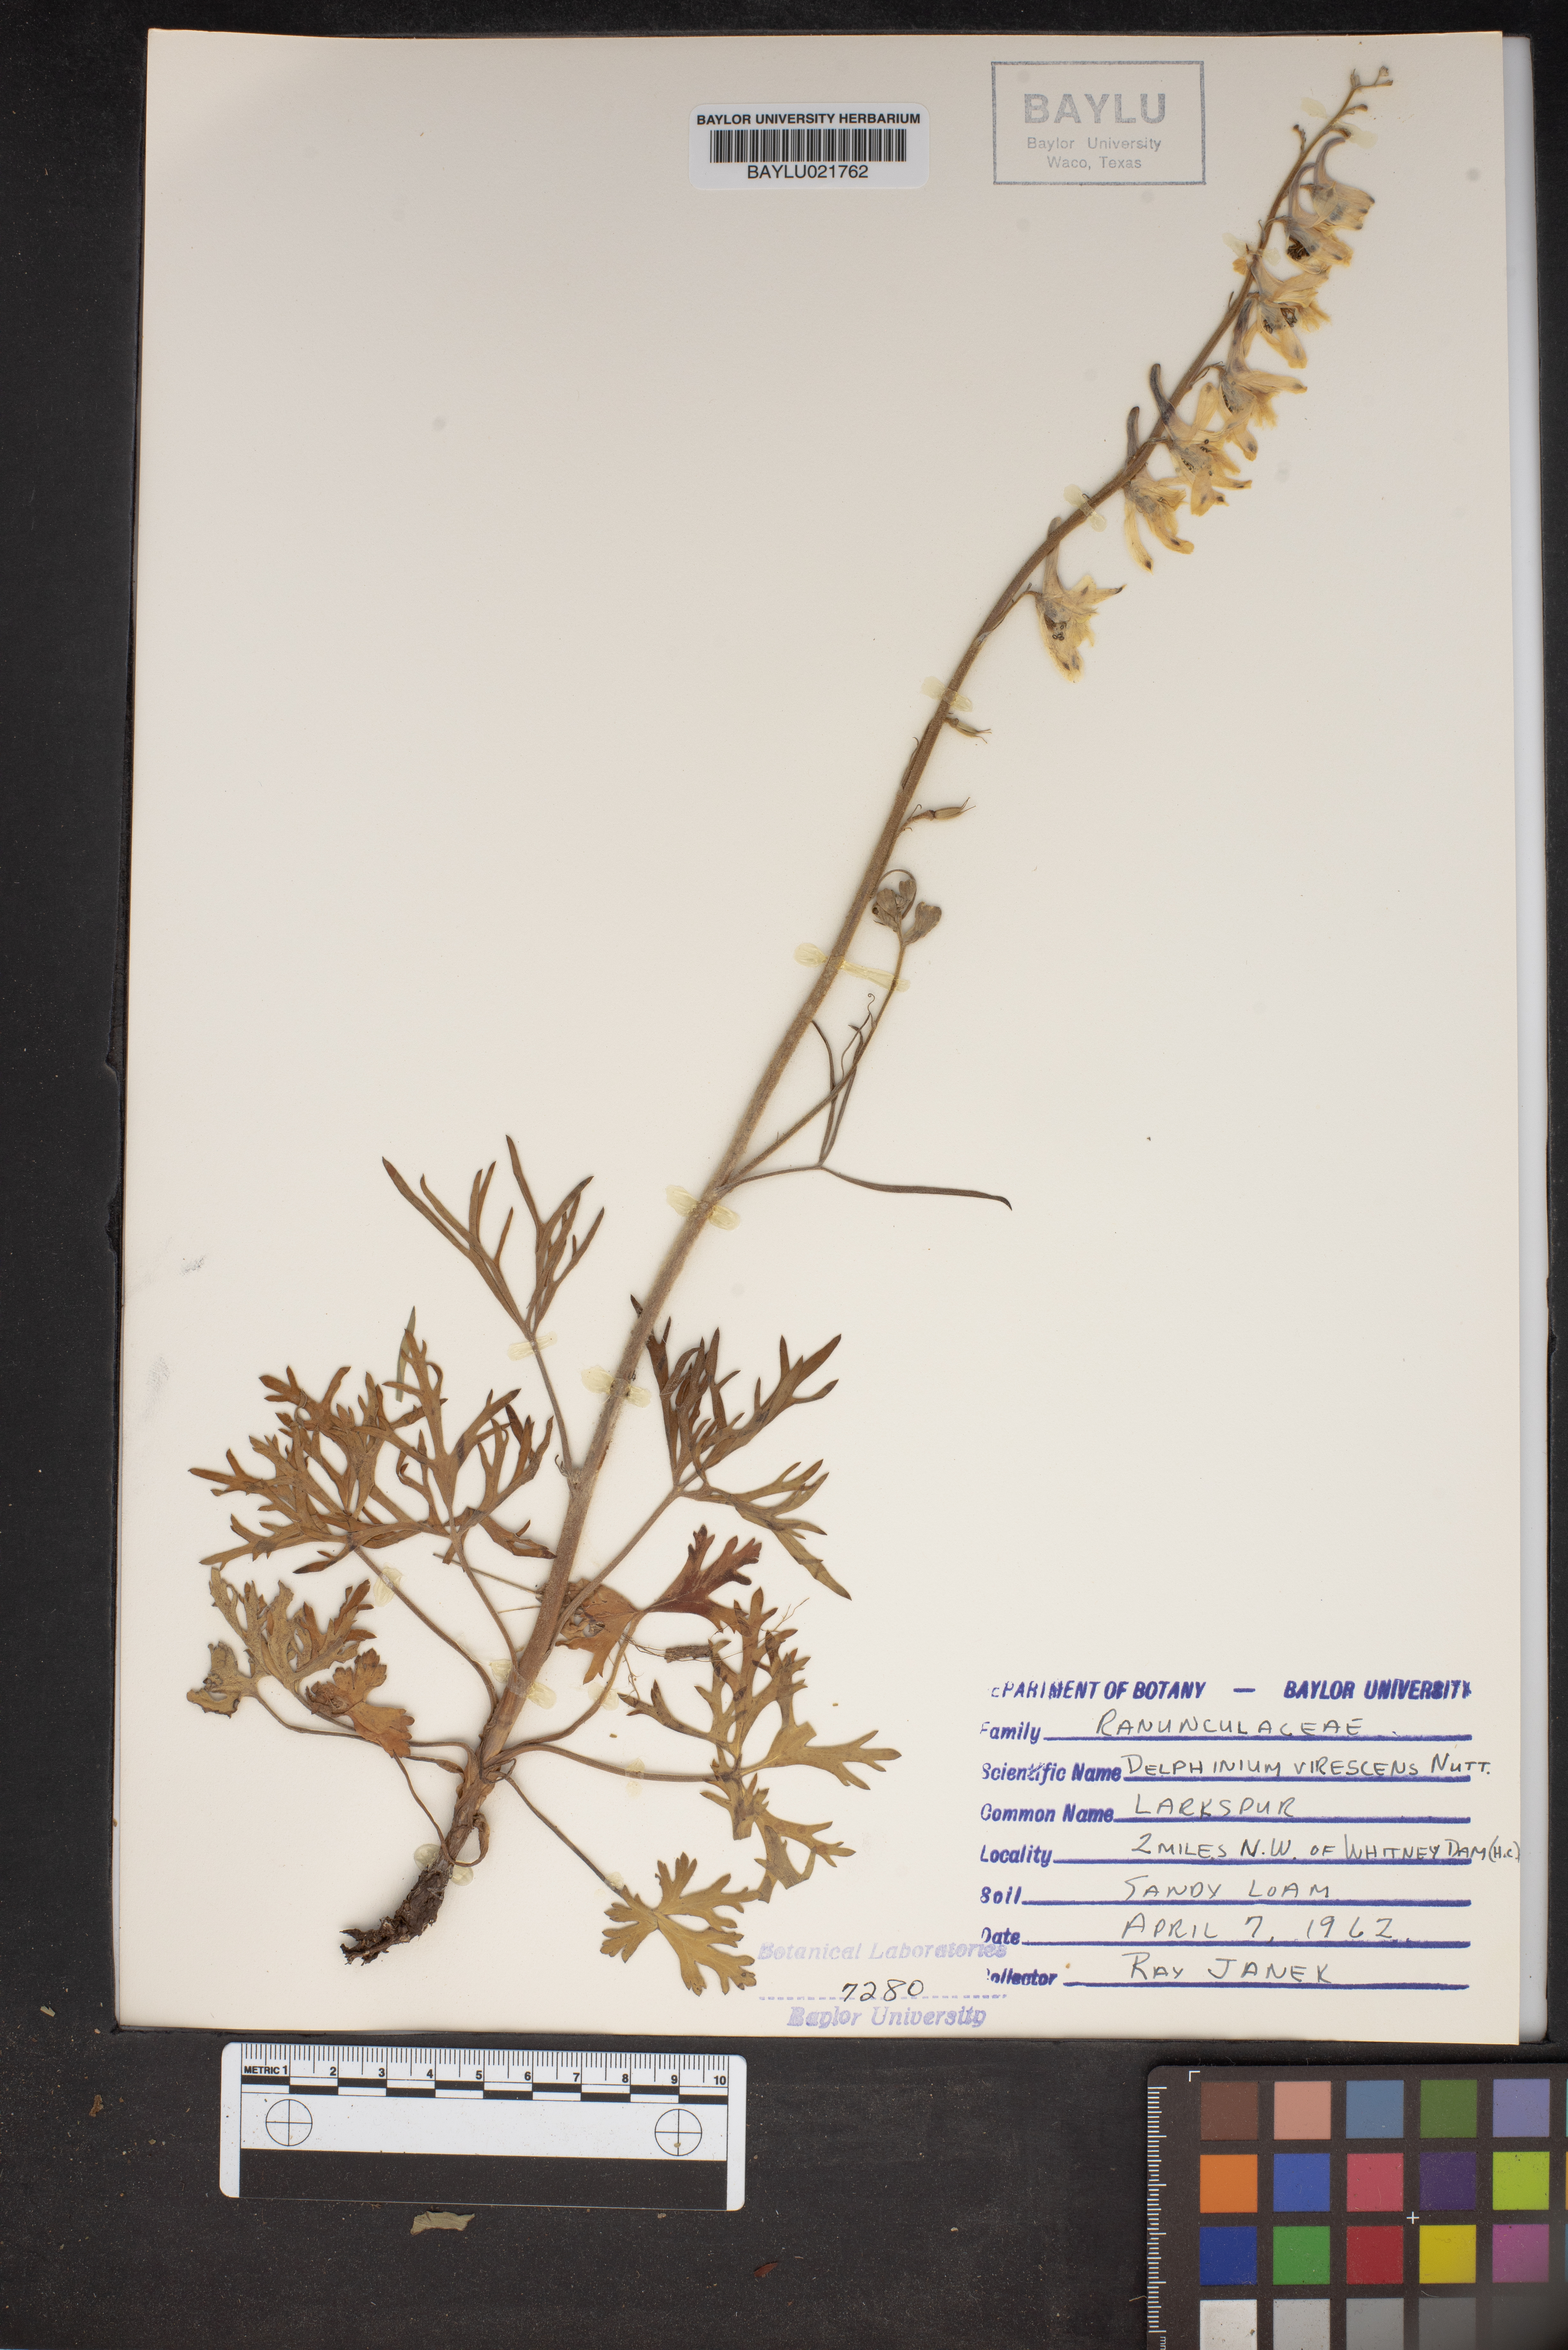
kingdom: Plantae
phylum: Tracheophyta
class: Magnoliopsida
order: Ranunculales
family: Ranunculaceae
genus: Delphinium
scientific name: Delphinium carolinianum
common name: Carolina larkspur
